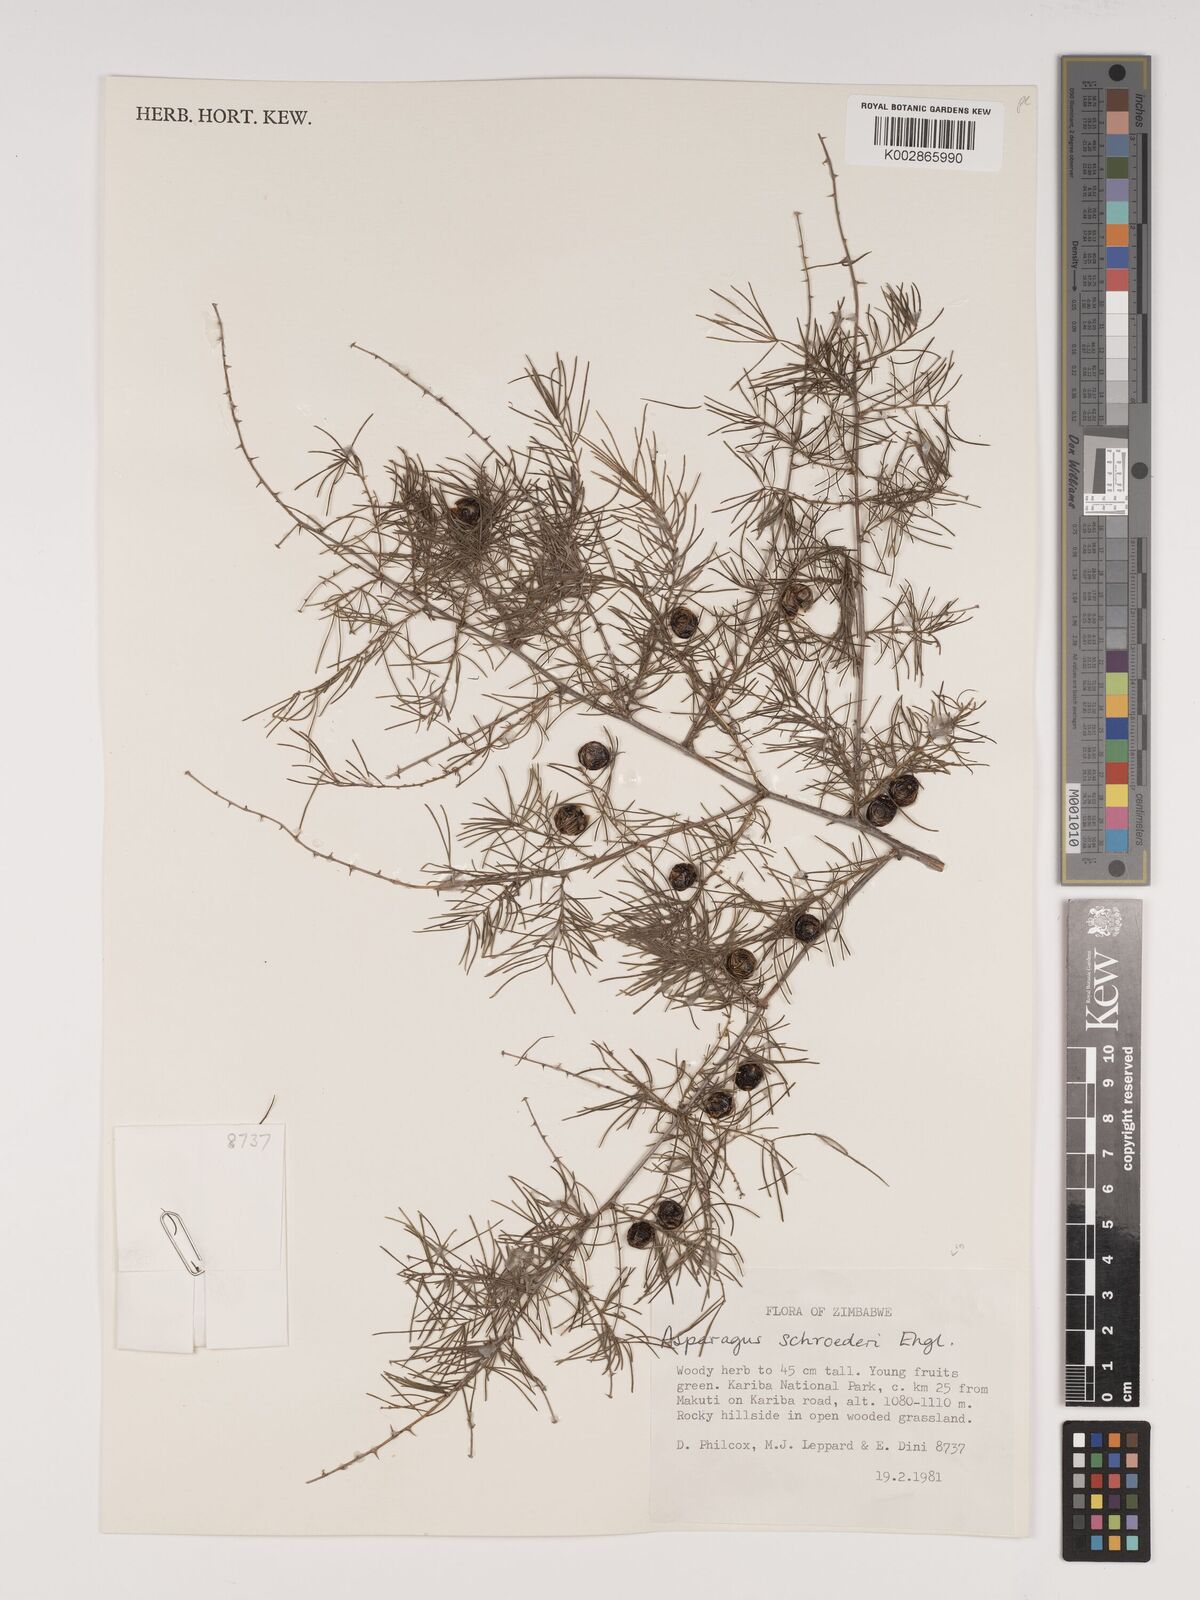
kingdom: Plantae
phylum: Tracheophyta
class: Liliopsida
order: Asparagales
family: Asparagaceae
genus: Asparagus
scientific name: Asparagus schroederi
